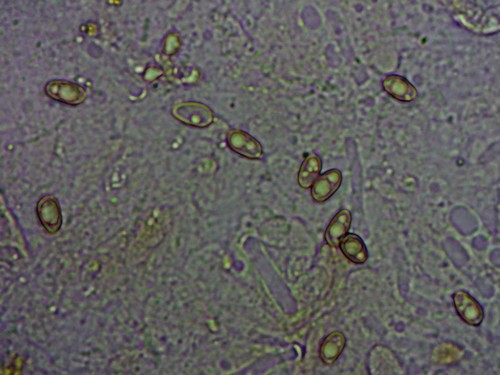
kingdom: Fungi
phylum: Basidiomycota
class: Agaricomycetes
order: Boletales
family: Paxillaceae
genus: Paxillus
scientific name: Paxillus rubicundulus
